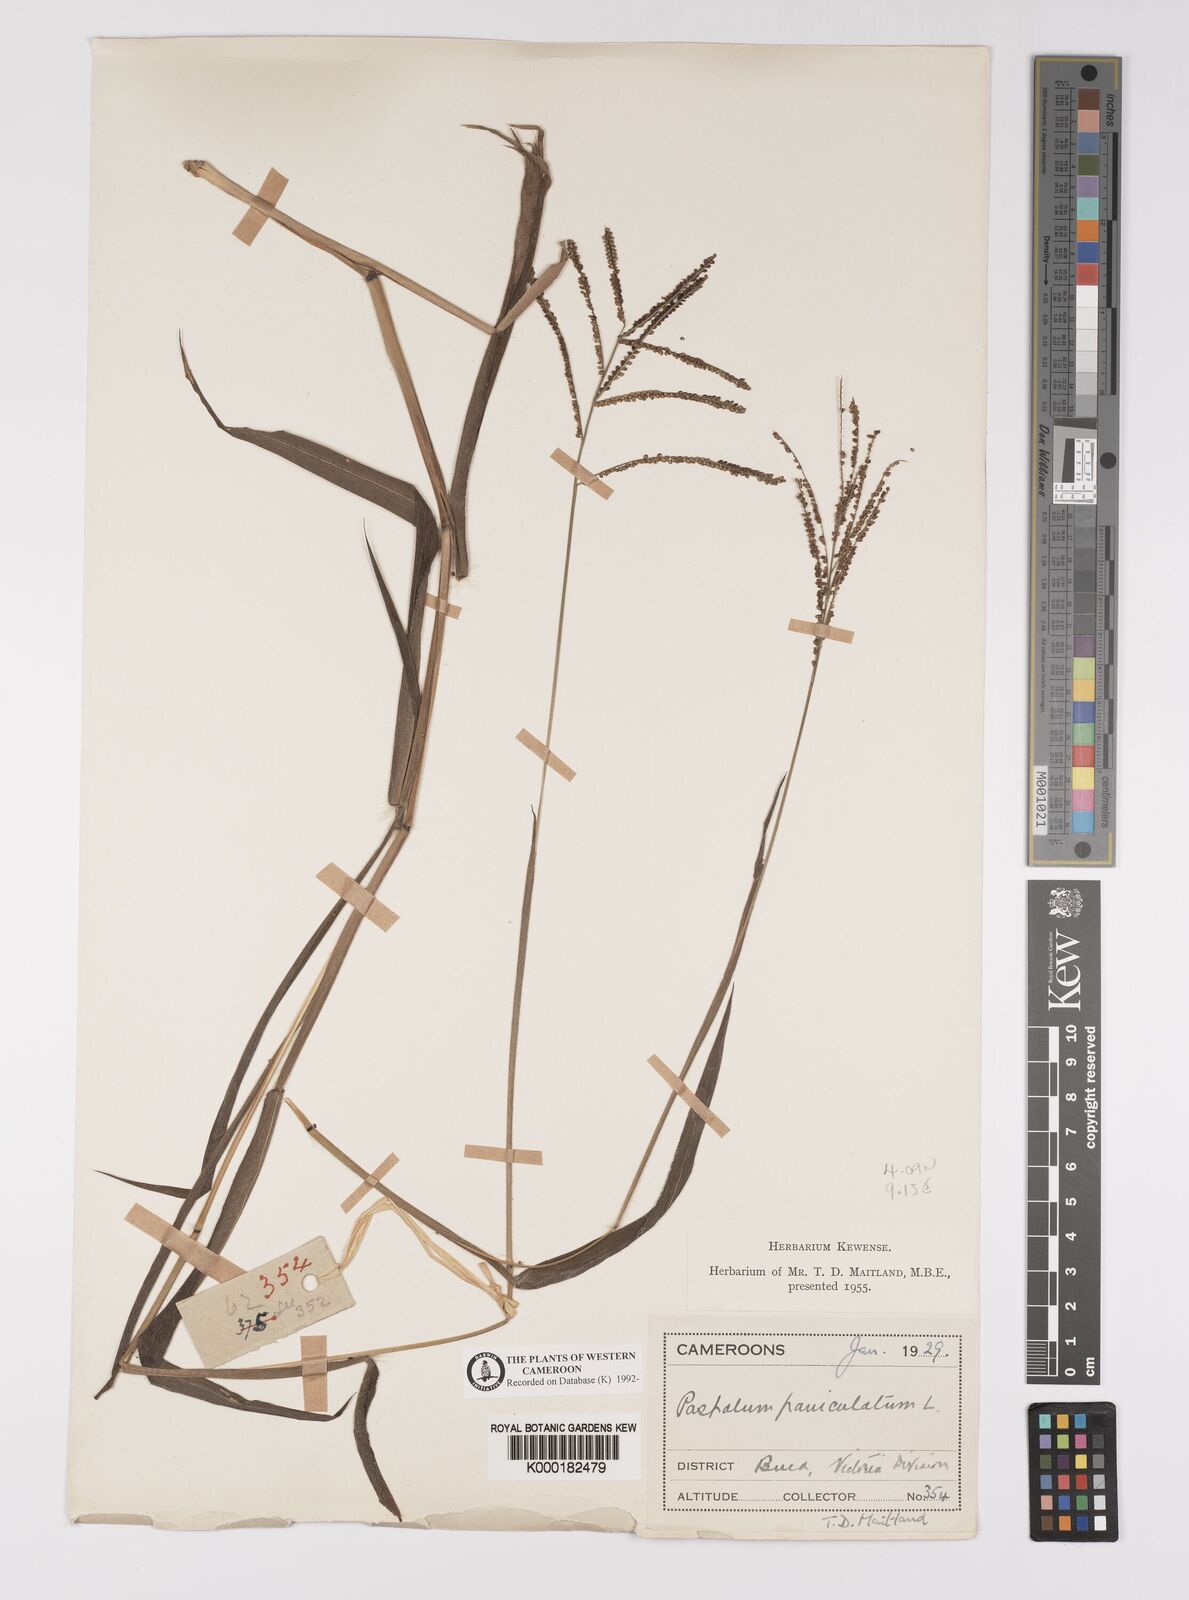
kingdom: Plantae
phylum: Tracheophyta
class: Liliopsida
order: Poales
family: Poaceae
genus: Paspalum
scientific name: Paspalum paniculatum
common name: Arrocillo
